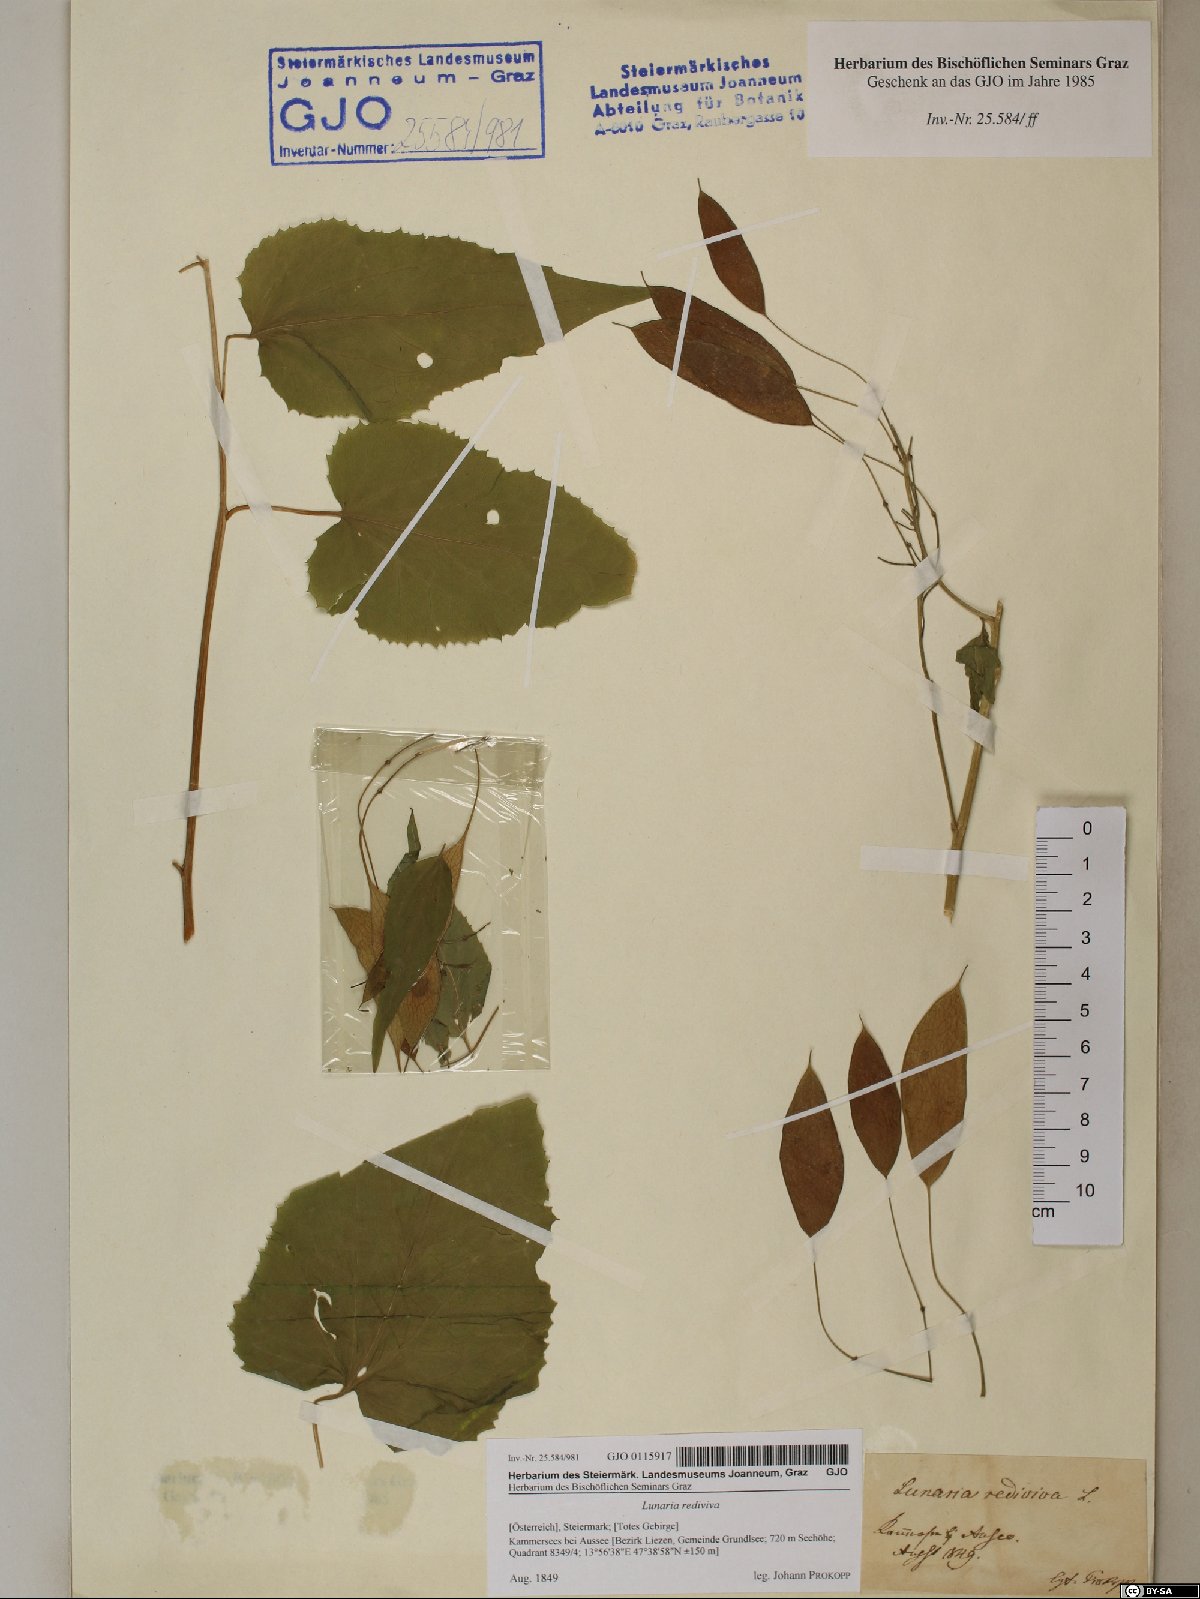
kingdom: Plantae
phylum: Tracheophyta
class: Magnoliopsida
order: Brassicales
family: Brassicaceae
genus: Lunaria
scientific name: Lunaria rediviva
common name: Perennial honesty
